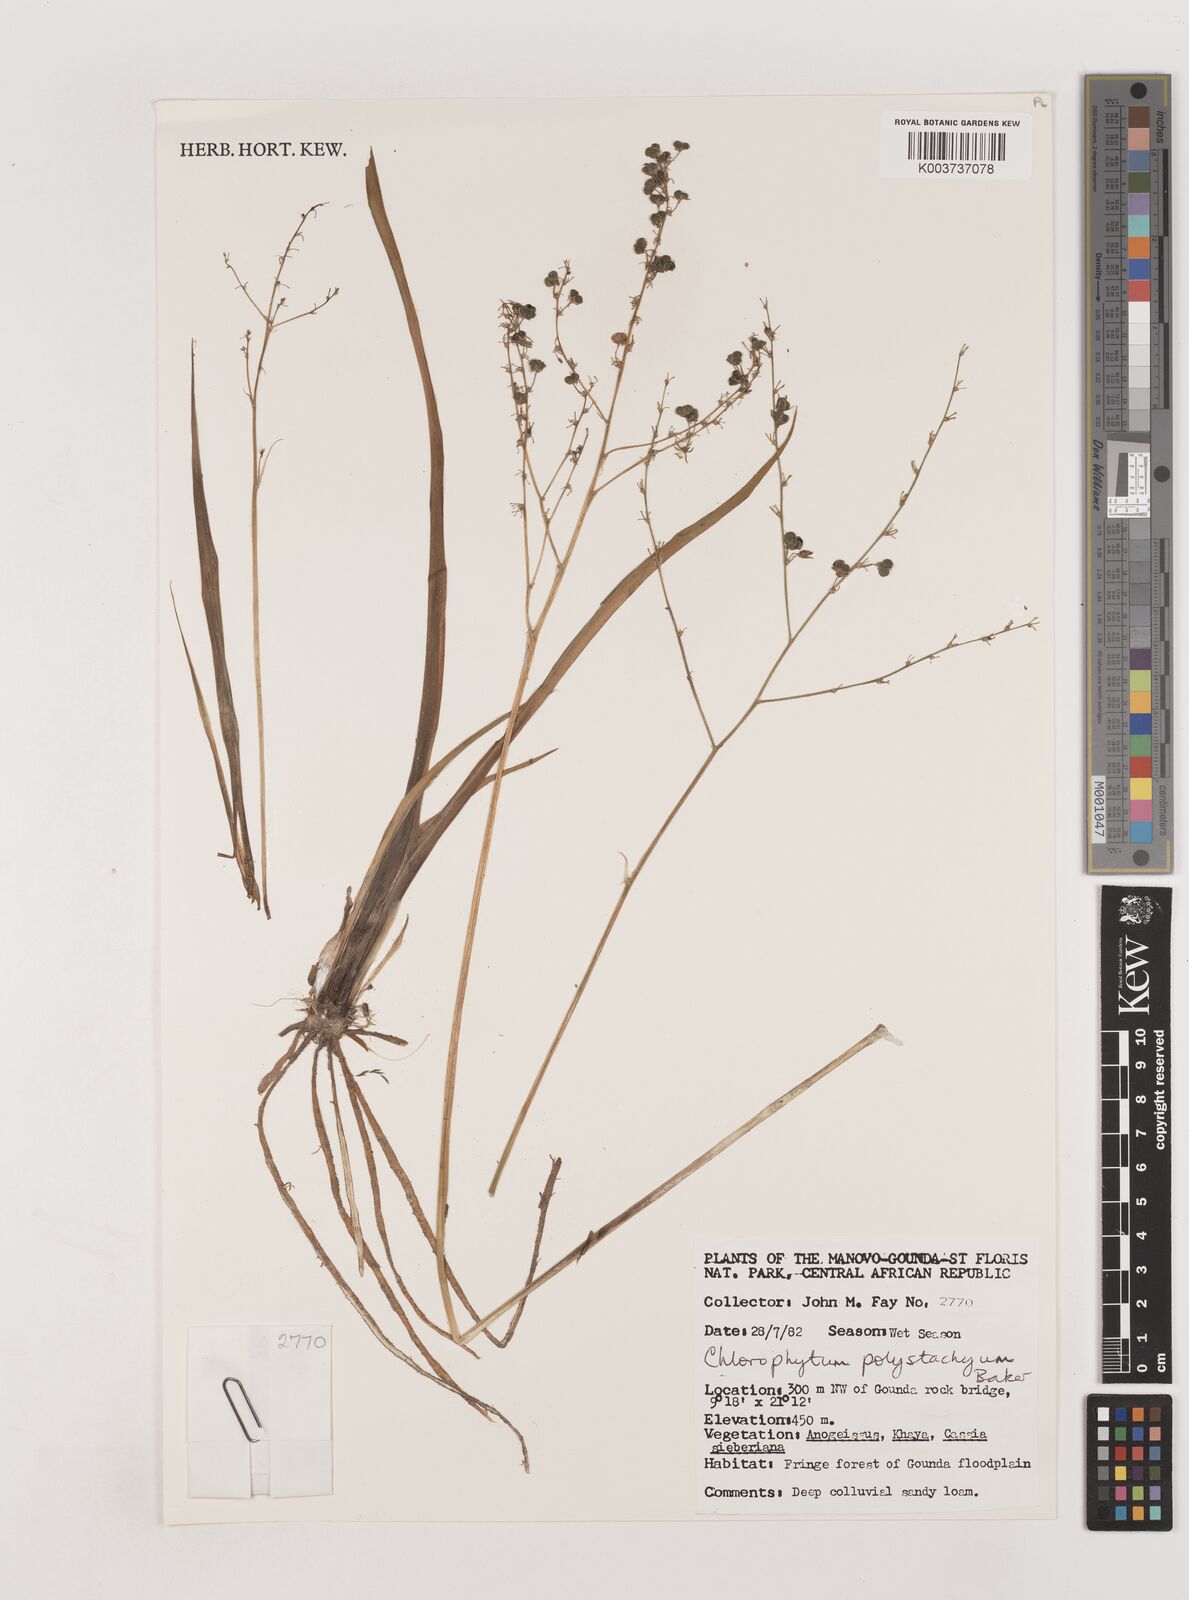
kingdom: Plantae
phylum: Tracheophyta
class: Liliopsida
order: Asparagales
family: Asparagaceae
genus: Chlorophytum
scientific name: Chlorophytum polystachys
